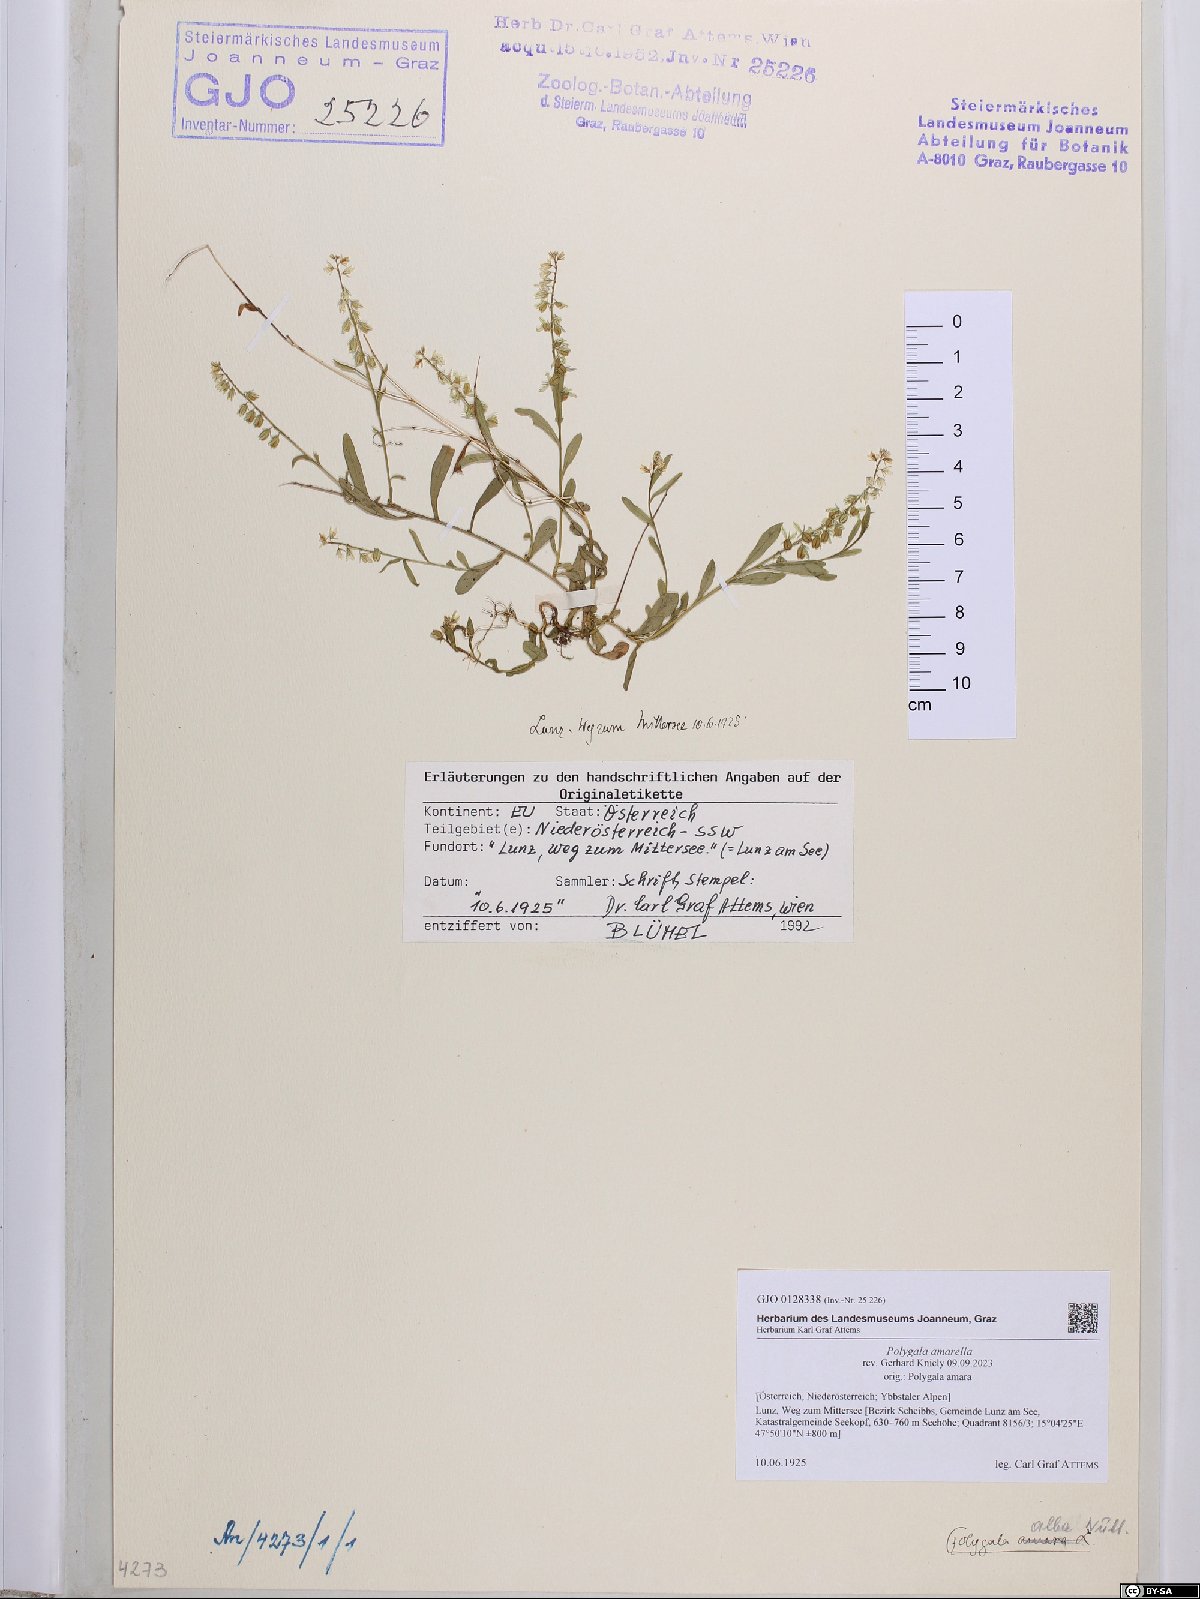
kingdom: Plantae
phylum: Tracheophyta
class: Magnoliopsida
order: Fabales
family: Polygalaceae
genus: Polygala
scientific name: Polygala amarella
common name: Dwarf milkwort
